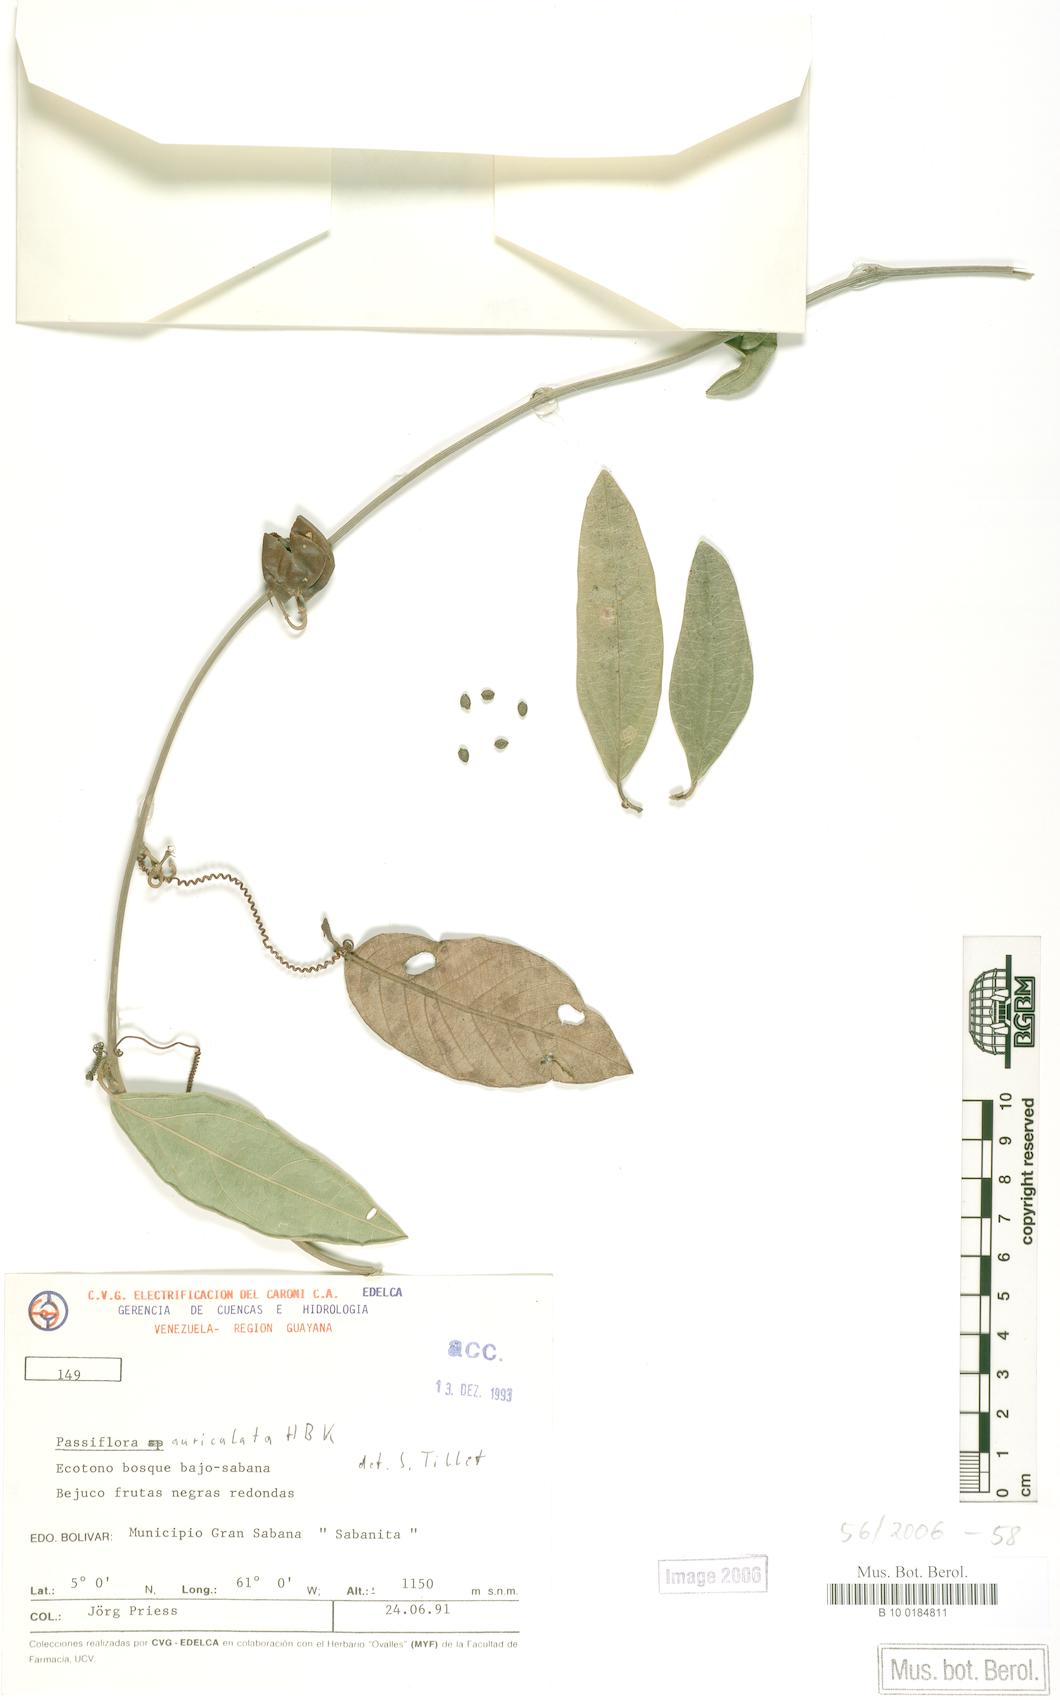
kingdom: Plantae
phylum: Tracheophyta
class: Magnoliopsida
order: Malpighiales
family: Passifloraceae
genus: Passiflora
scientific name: Passiflora auriculata
